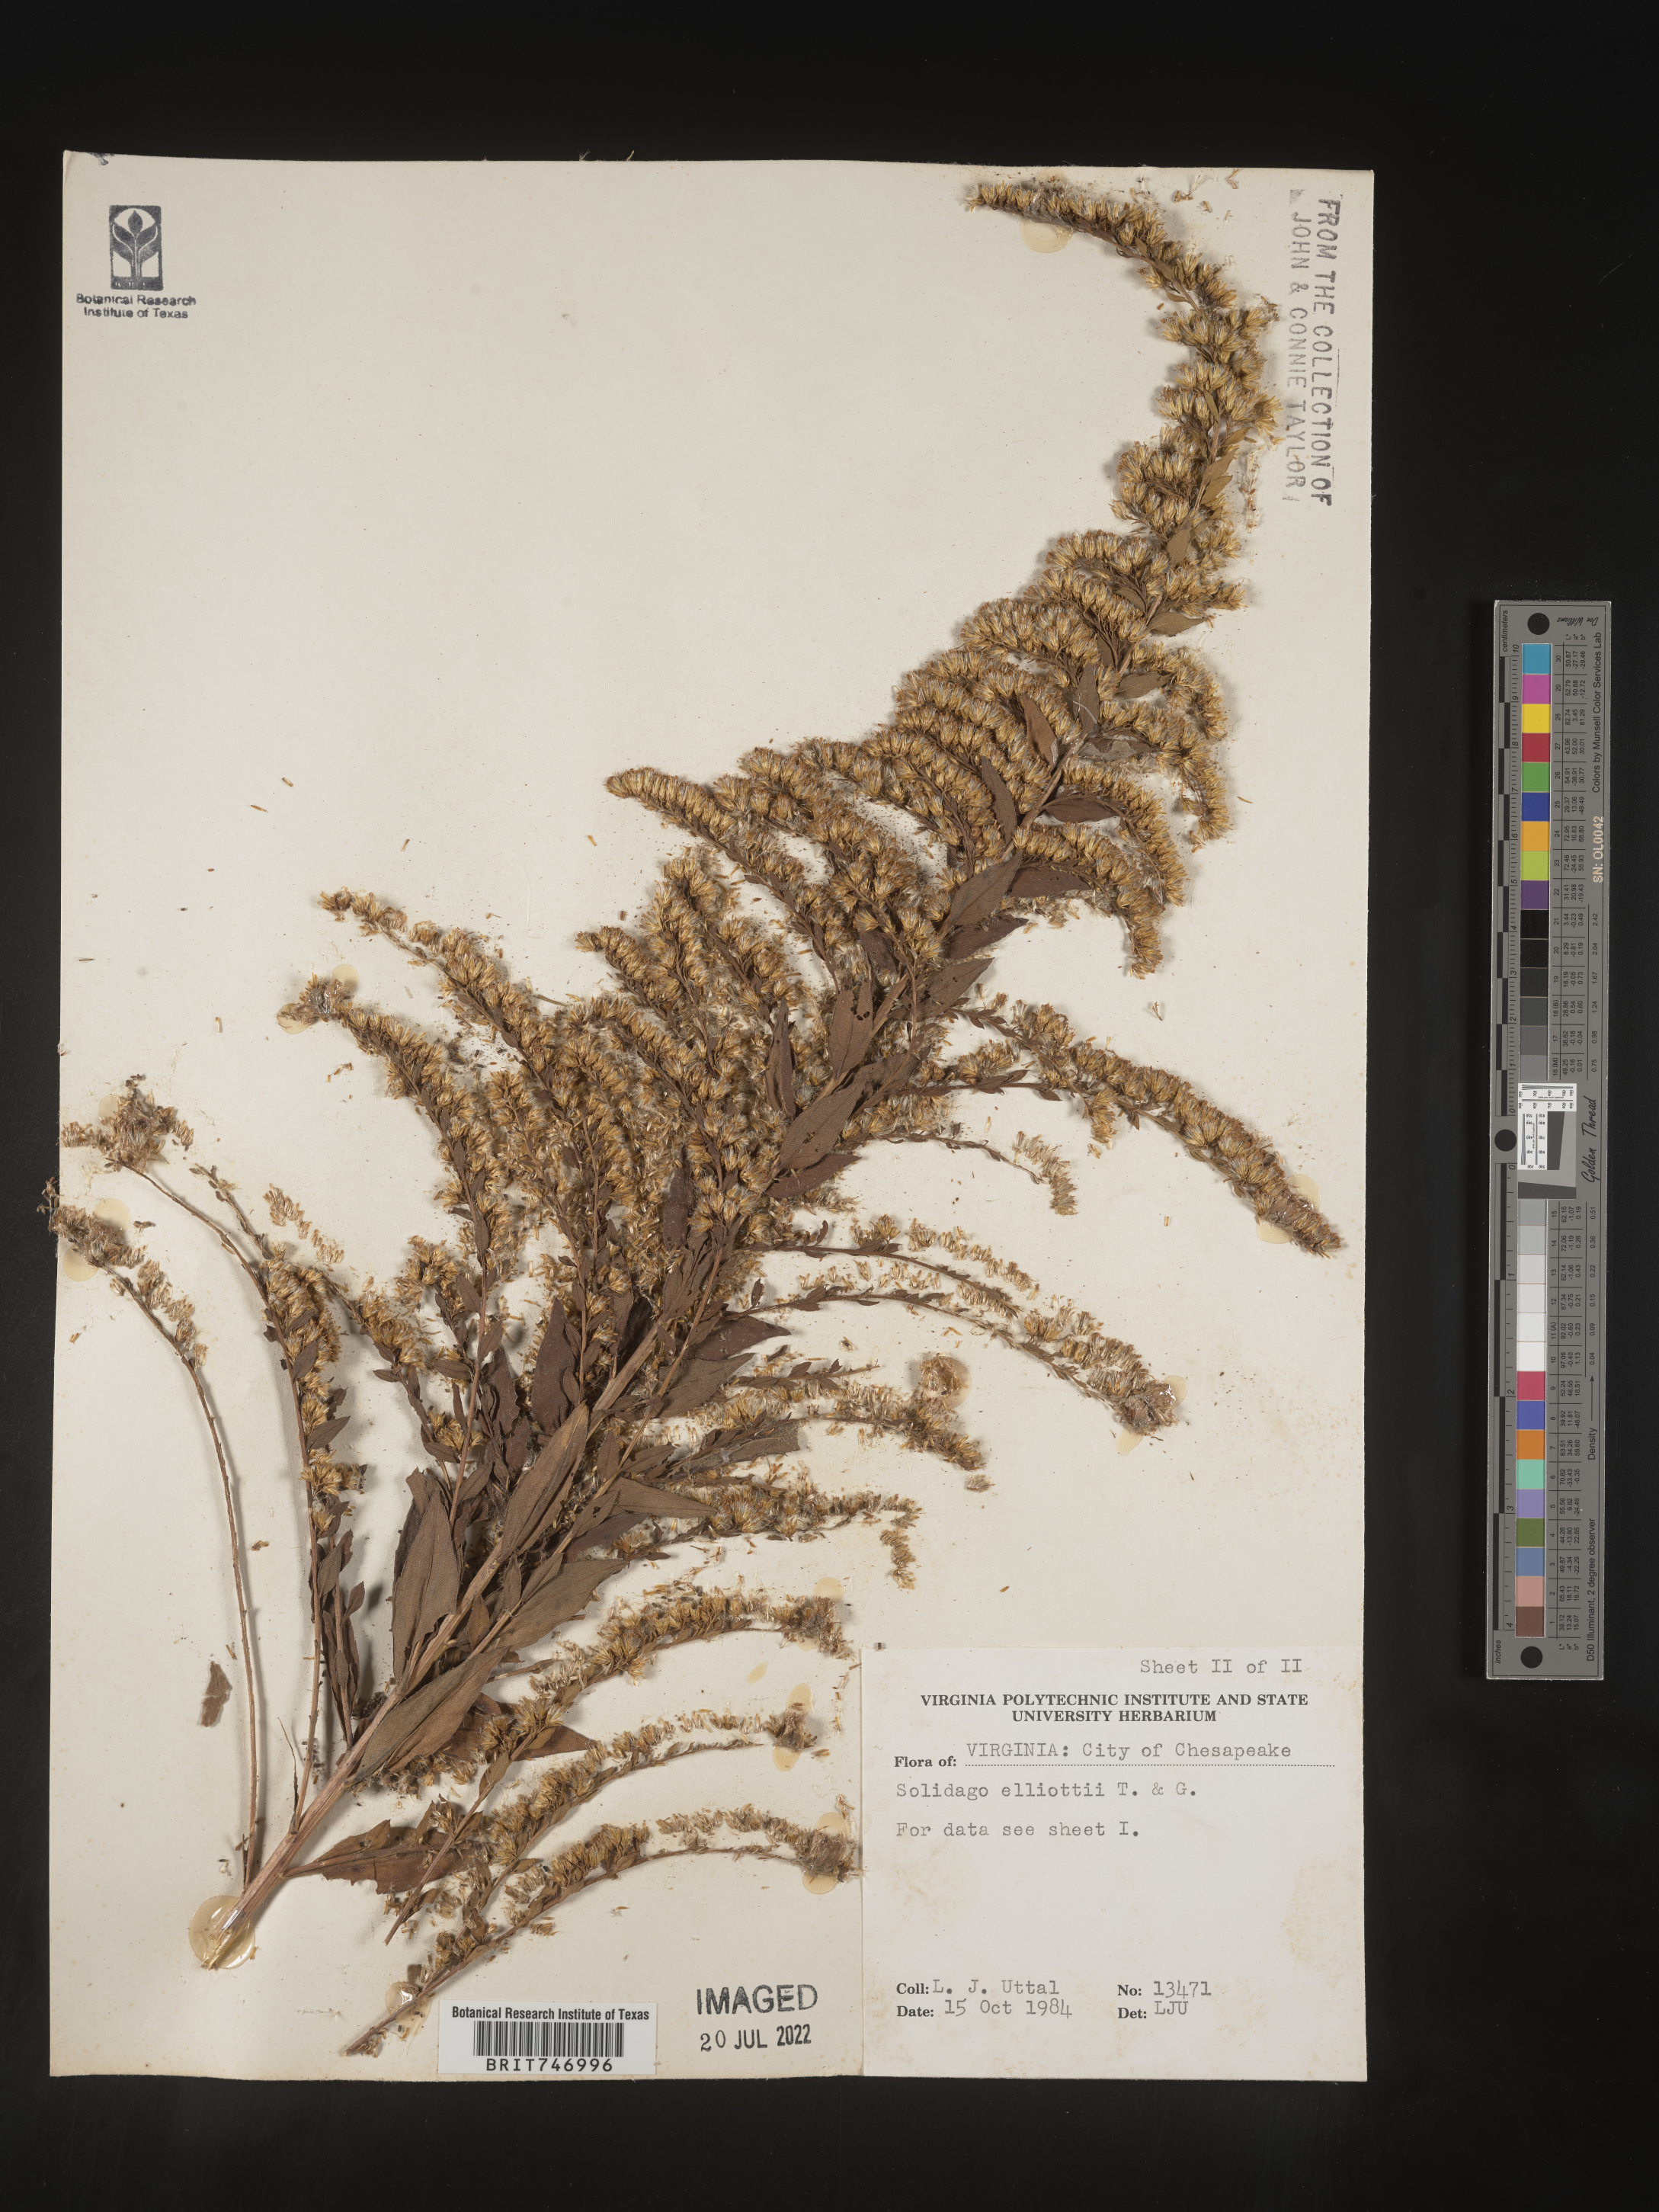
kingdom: Plantae
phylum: Tracheophyta
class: Magnoliopsida
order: Asterales
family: Asteraceae
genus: Solidago
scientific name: Solidago latissimifolia
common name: Elliott's goldenrod
